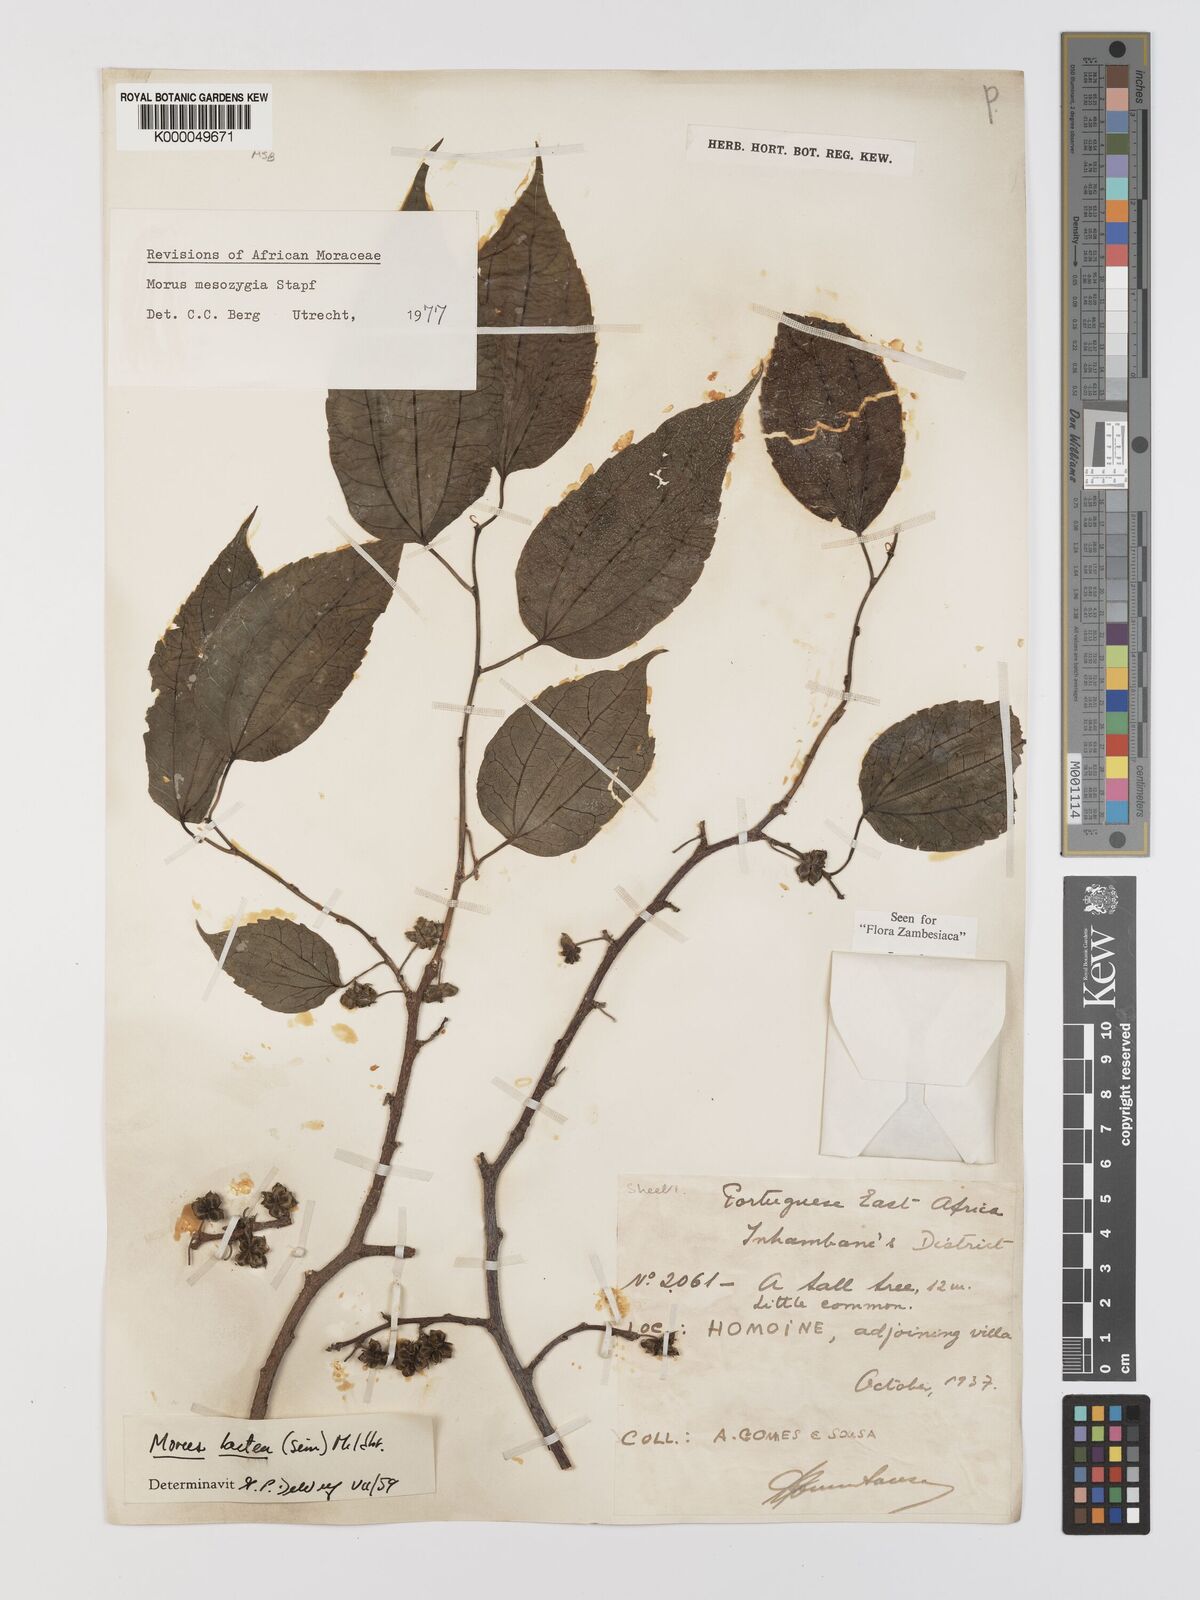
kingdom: Plantae
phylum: Tracheophyta
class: Magnoliopsida
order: Rosales
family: Moraceae
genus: Afromorus
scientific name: Afromorus mesozygia
